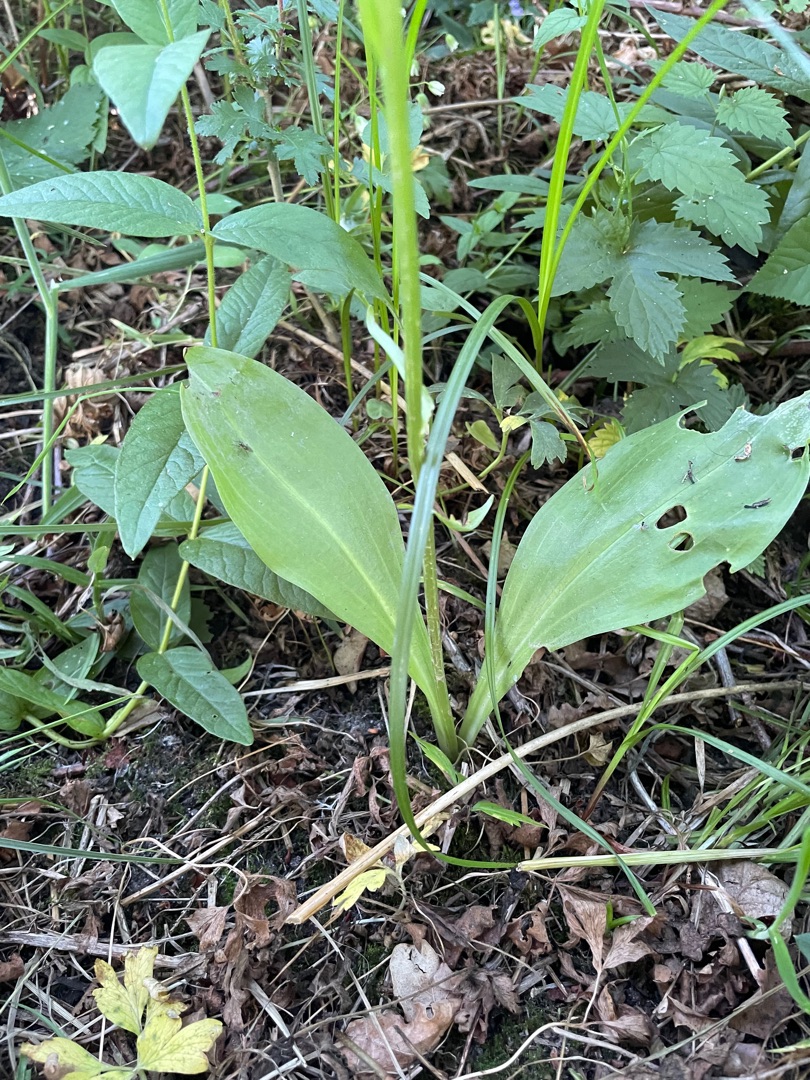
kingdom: Plantae
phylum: Tracheophyta
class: Liliopsida
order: Asparagales
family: Orchidaceae
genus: Platanthera
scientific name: Platanthera chlorantha
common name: Skov-gøgelilje
